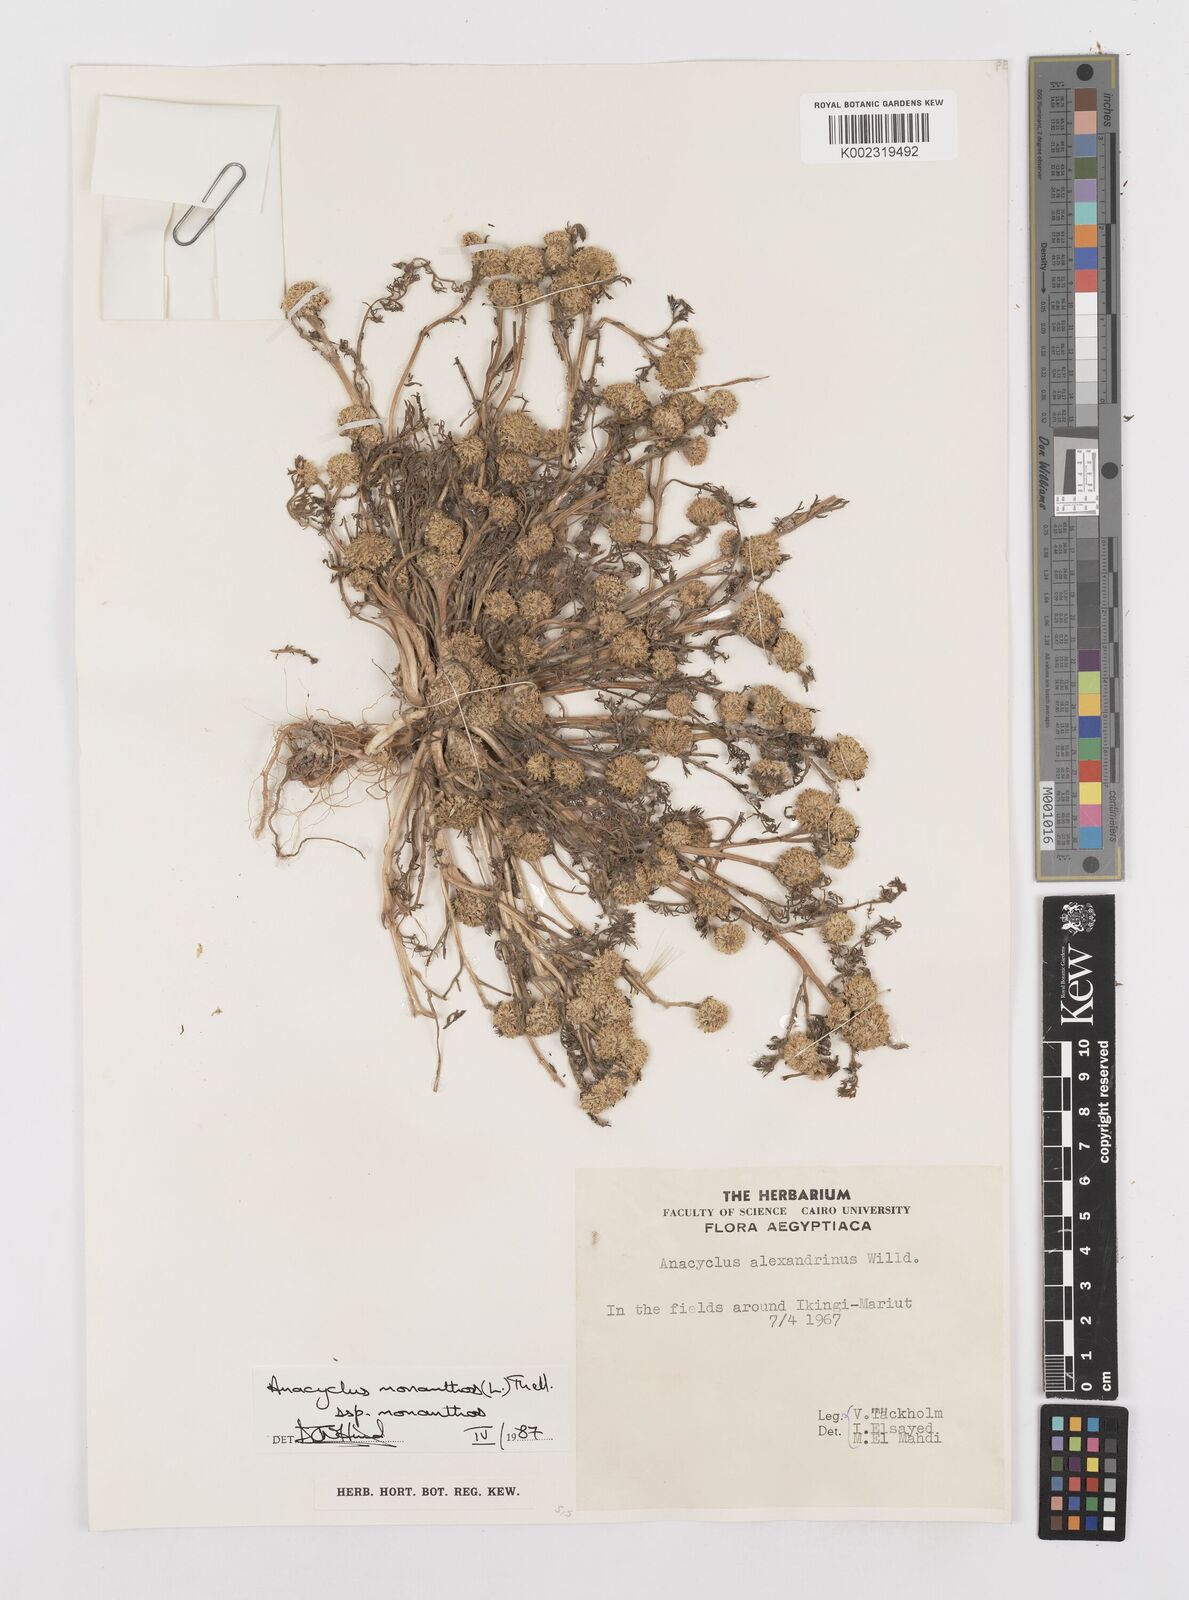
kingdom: Plantae
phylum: Tracheophyta
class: Magnoliopsida
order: Asterales
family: Asteraceae
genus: Anacyclus
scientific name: Anacyclus monanthos
